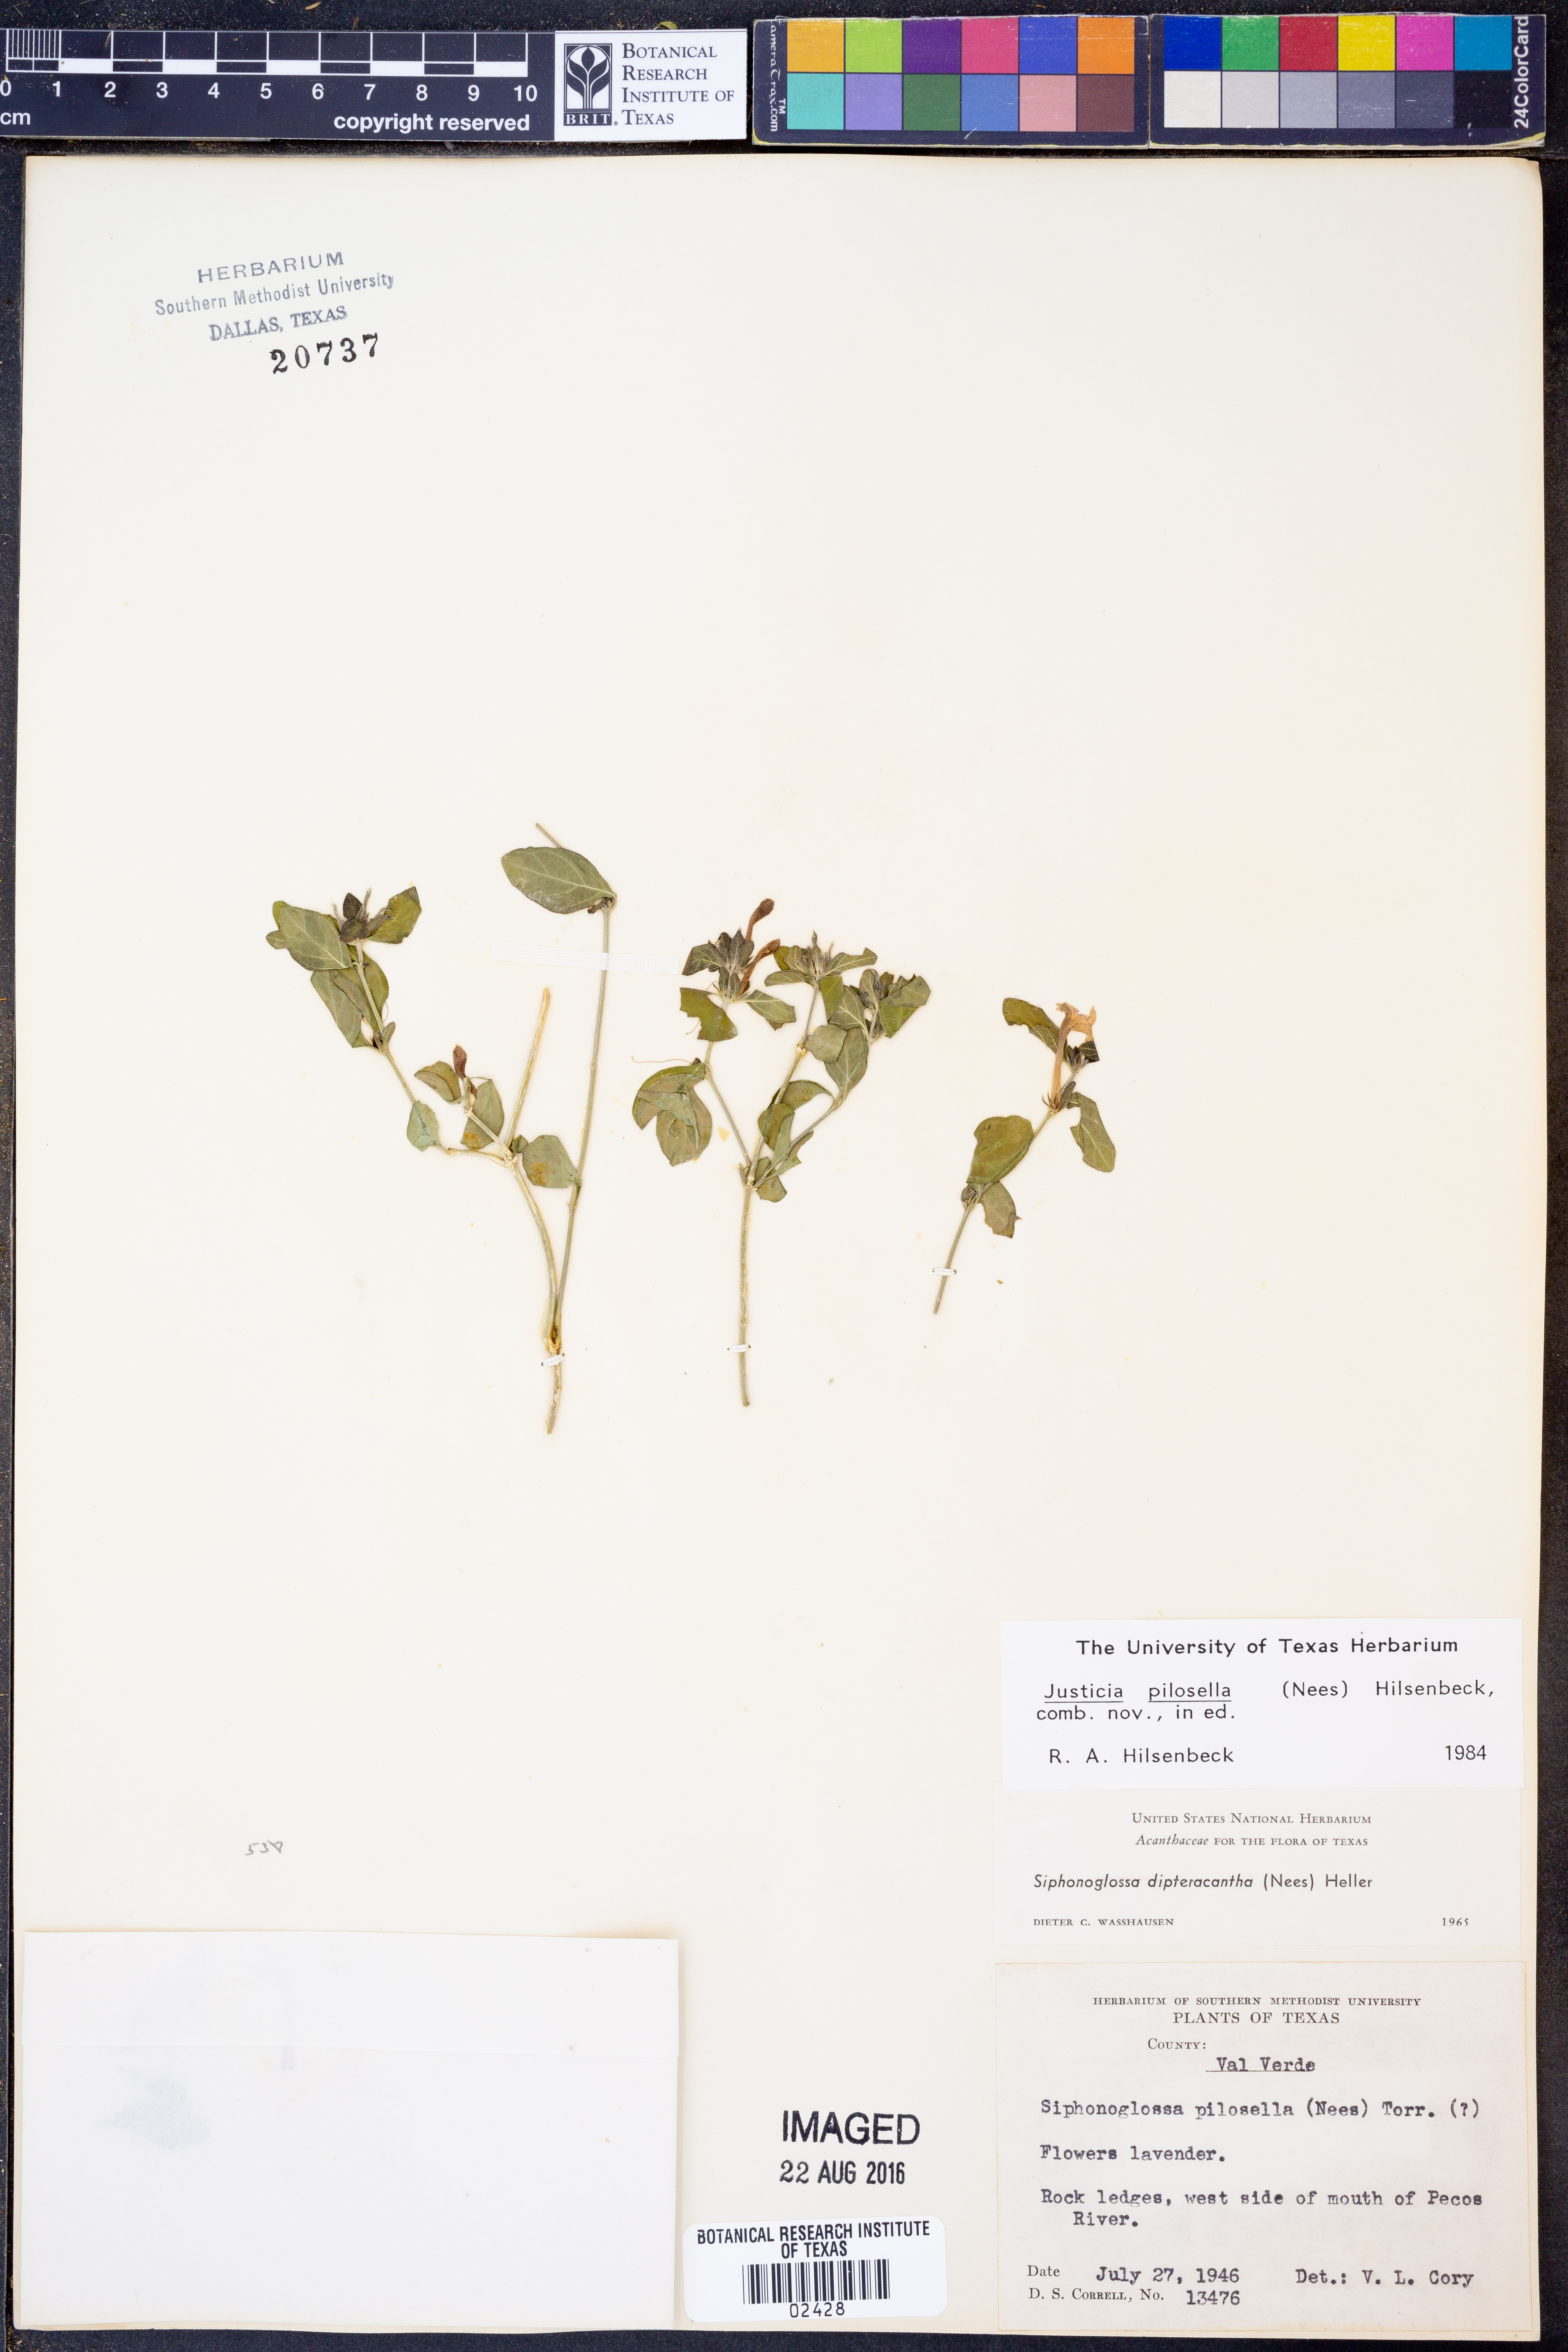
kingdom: Plantae
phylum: Tracheophyta
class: Magnoliopsida
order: Lamiales
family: Acanthaceae
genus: Justicia
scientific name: Justicia pilosella
